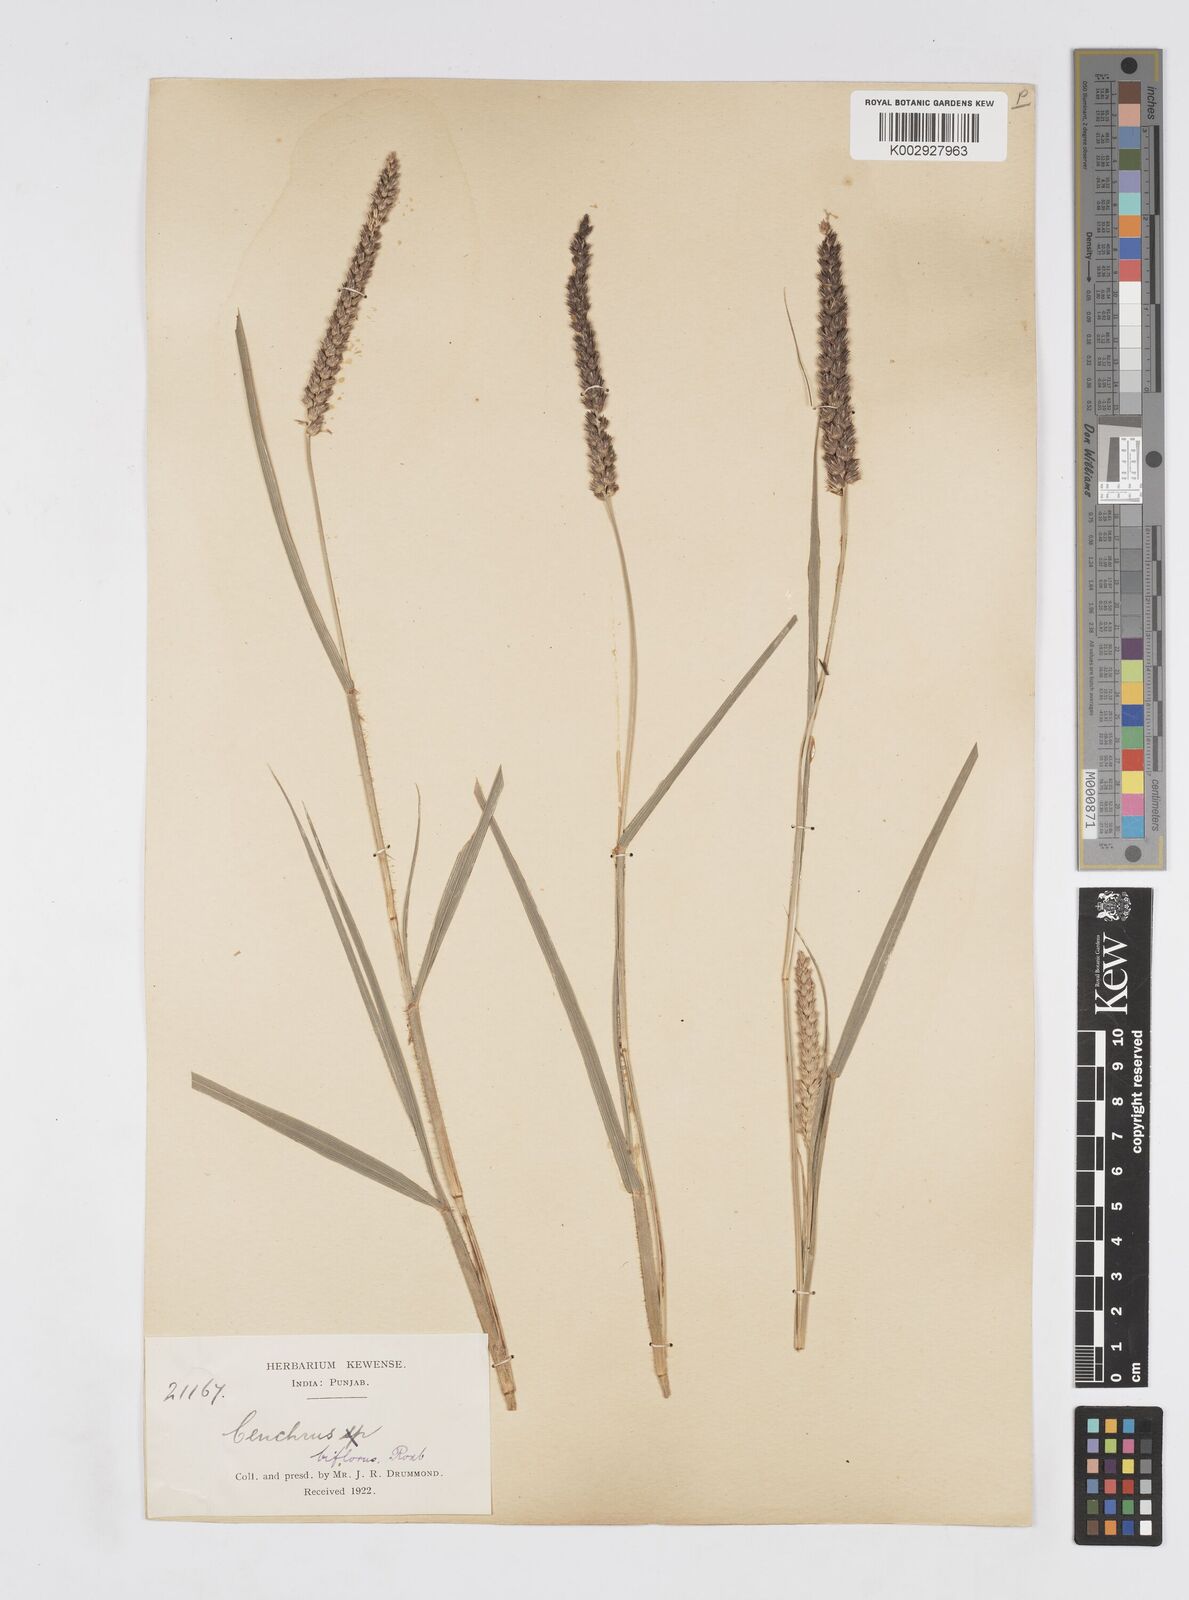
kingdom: Plantae
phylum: Tracheophyta
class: Liliopsida
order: Poales
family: Poaceae
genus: Cenchrus
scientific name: Cenchrus setigerus
